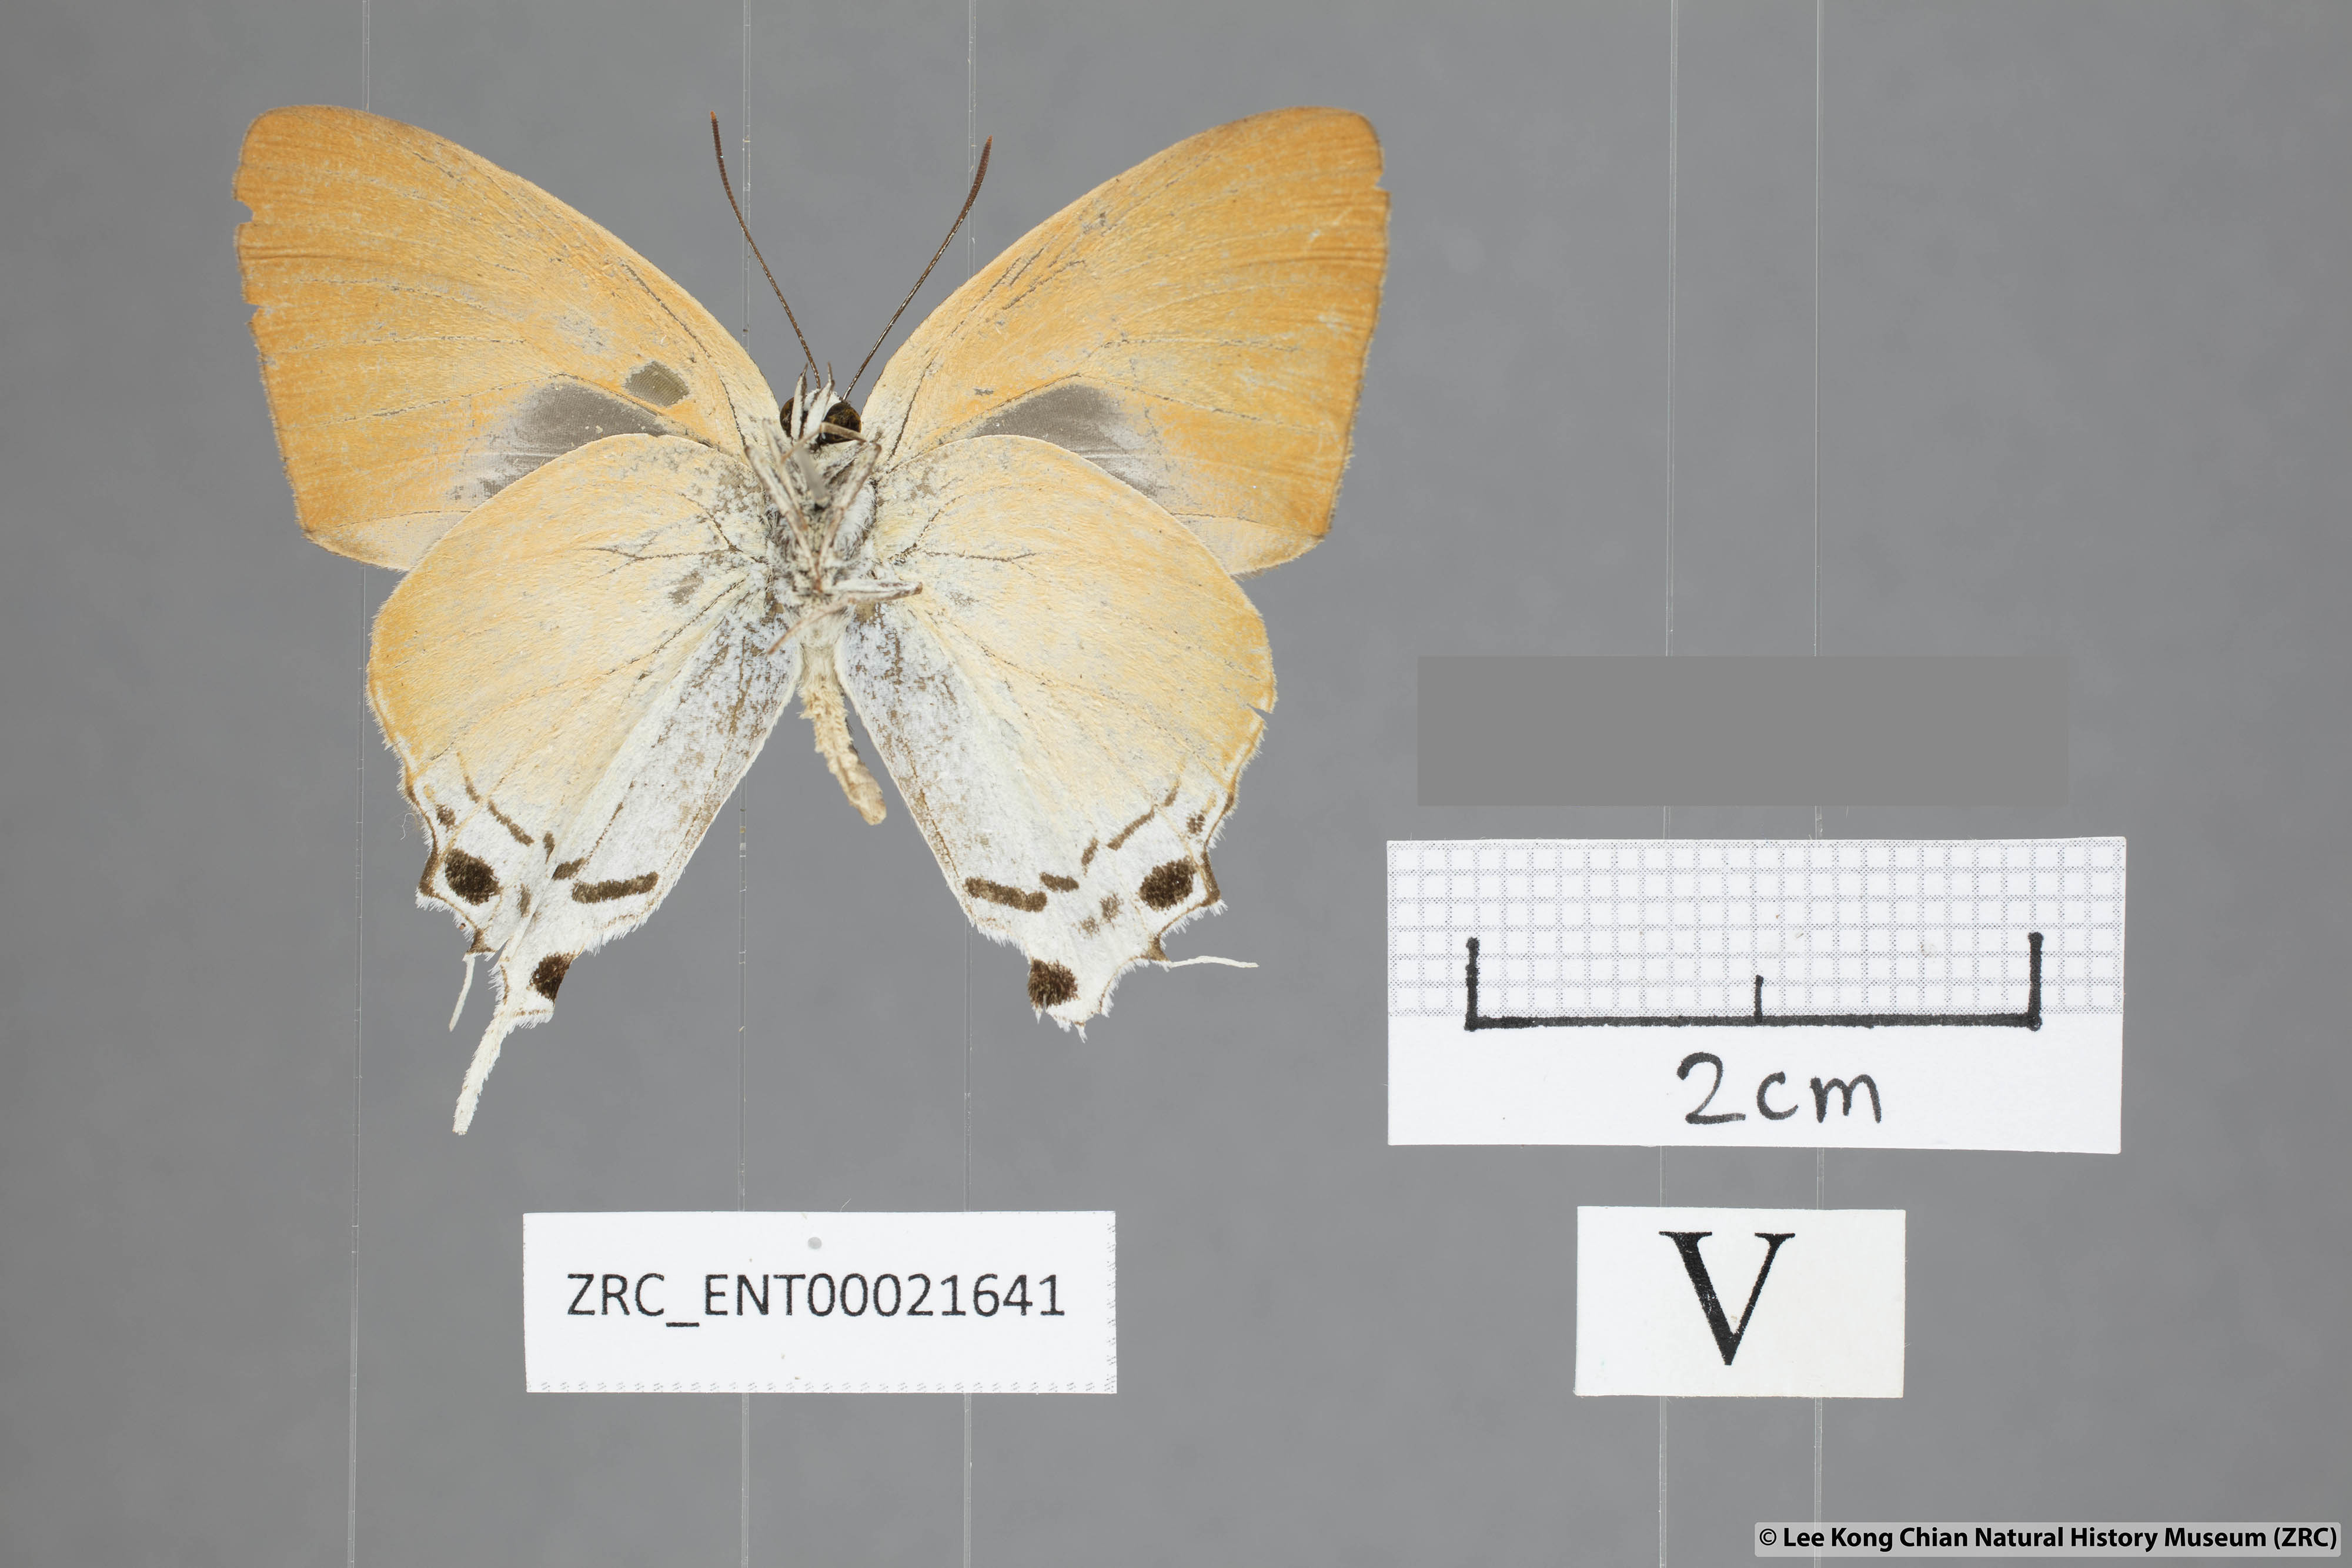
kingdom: Animalia
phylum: Arthropoda
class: Insecta
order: Lepidoptera
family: Lycaenidae
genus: Manto
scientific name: Manto hypoleuca
